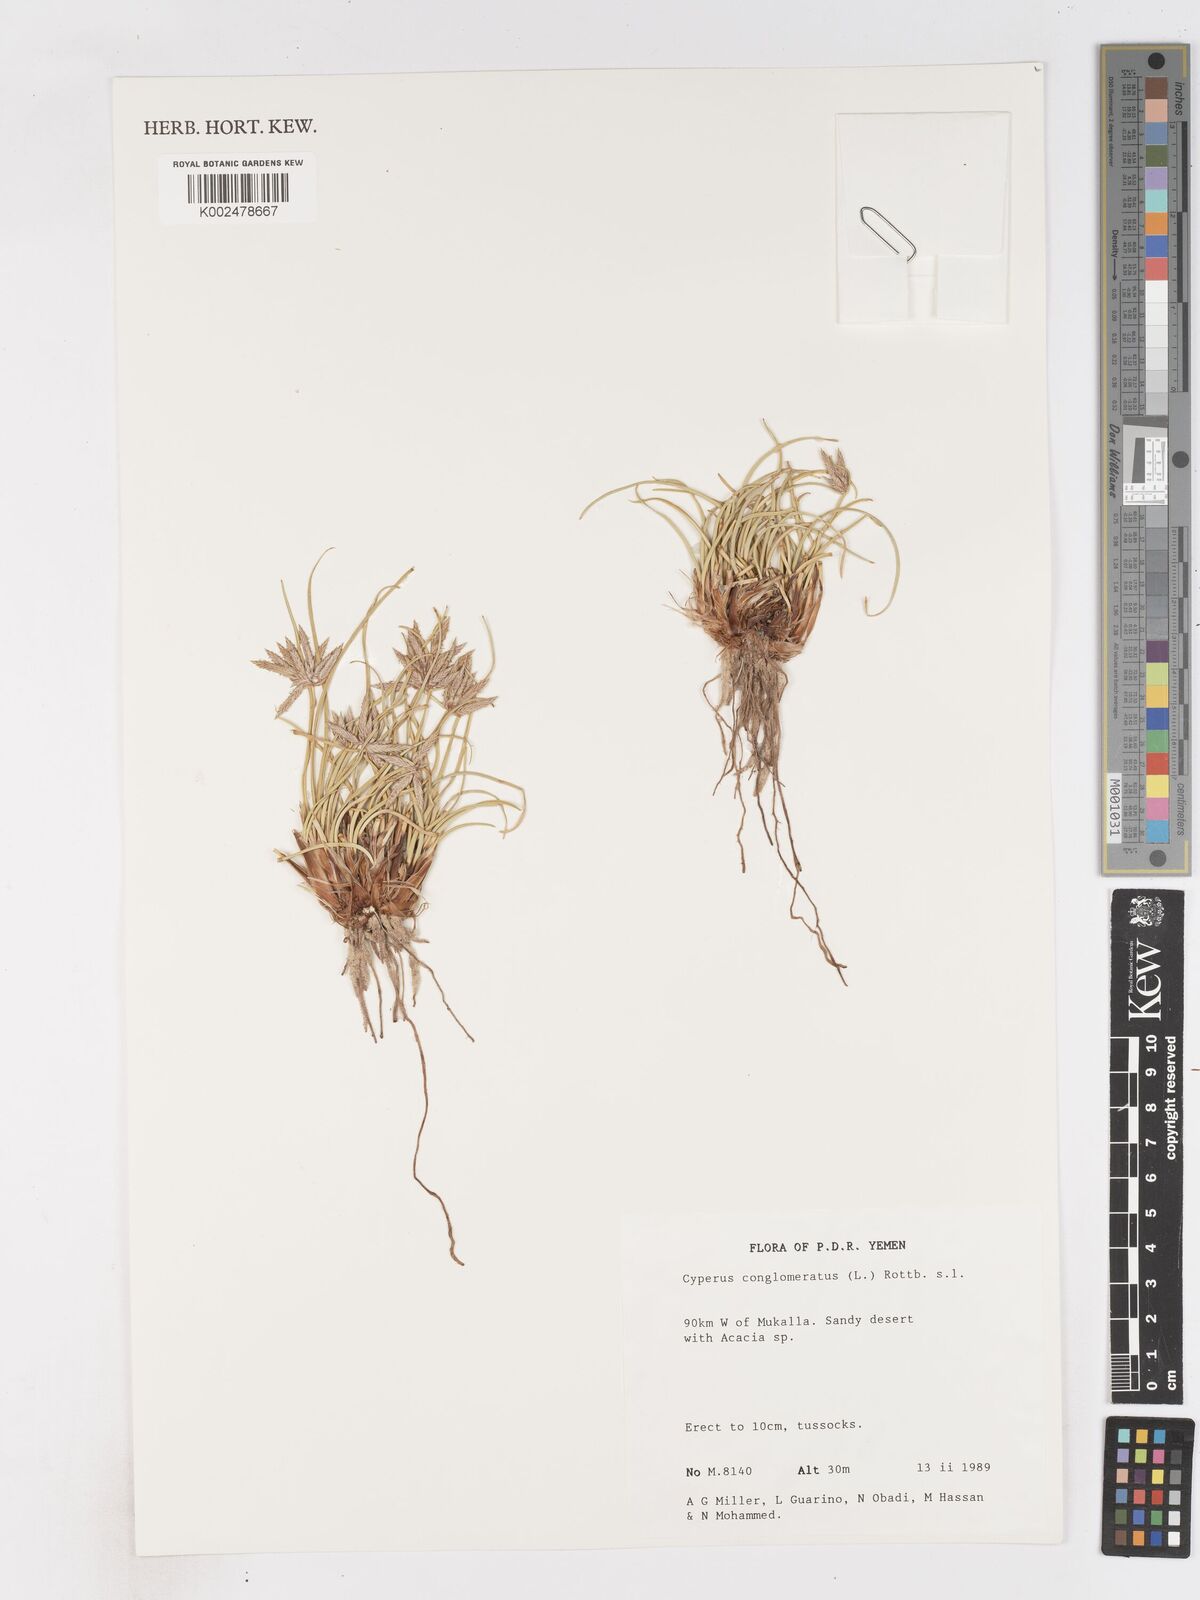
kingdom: Plantae
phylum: Tracheophyta
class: Liliopsida
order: Poales
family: Cyperaceae
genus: Cyperus
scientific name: Cyperus conglomeratus
